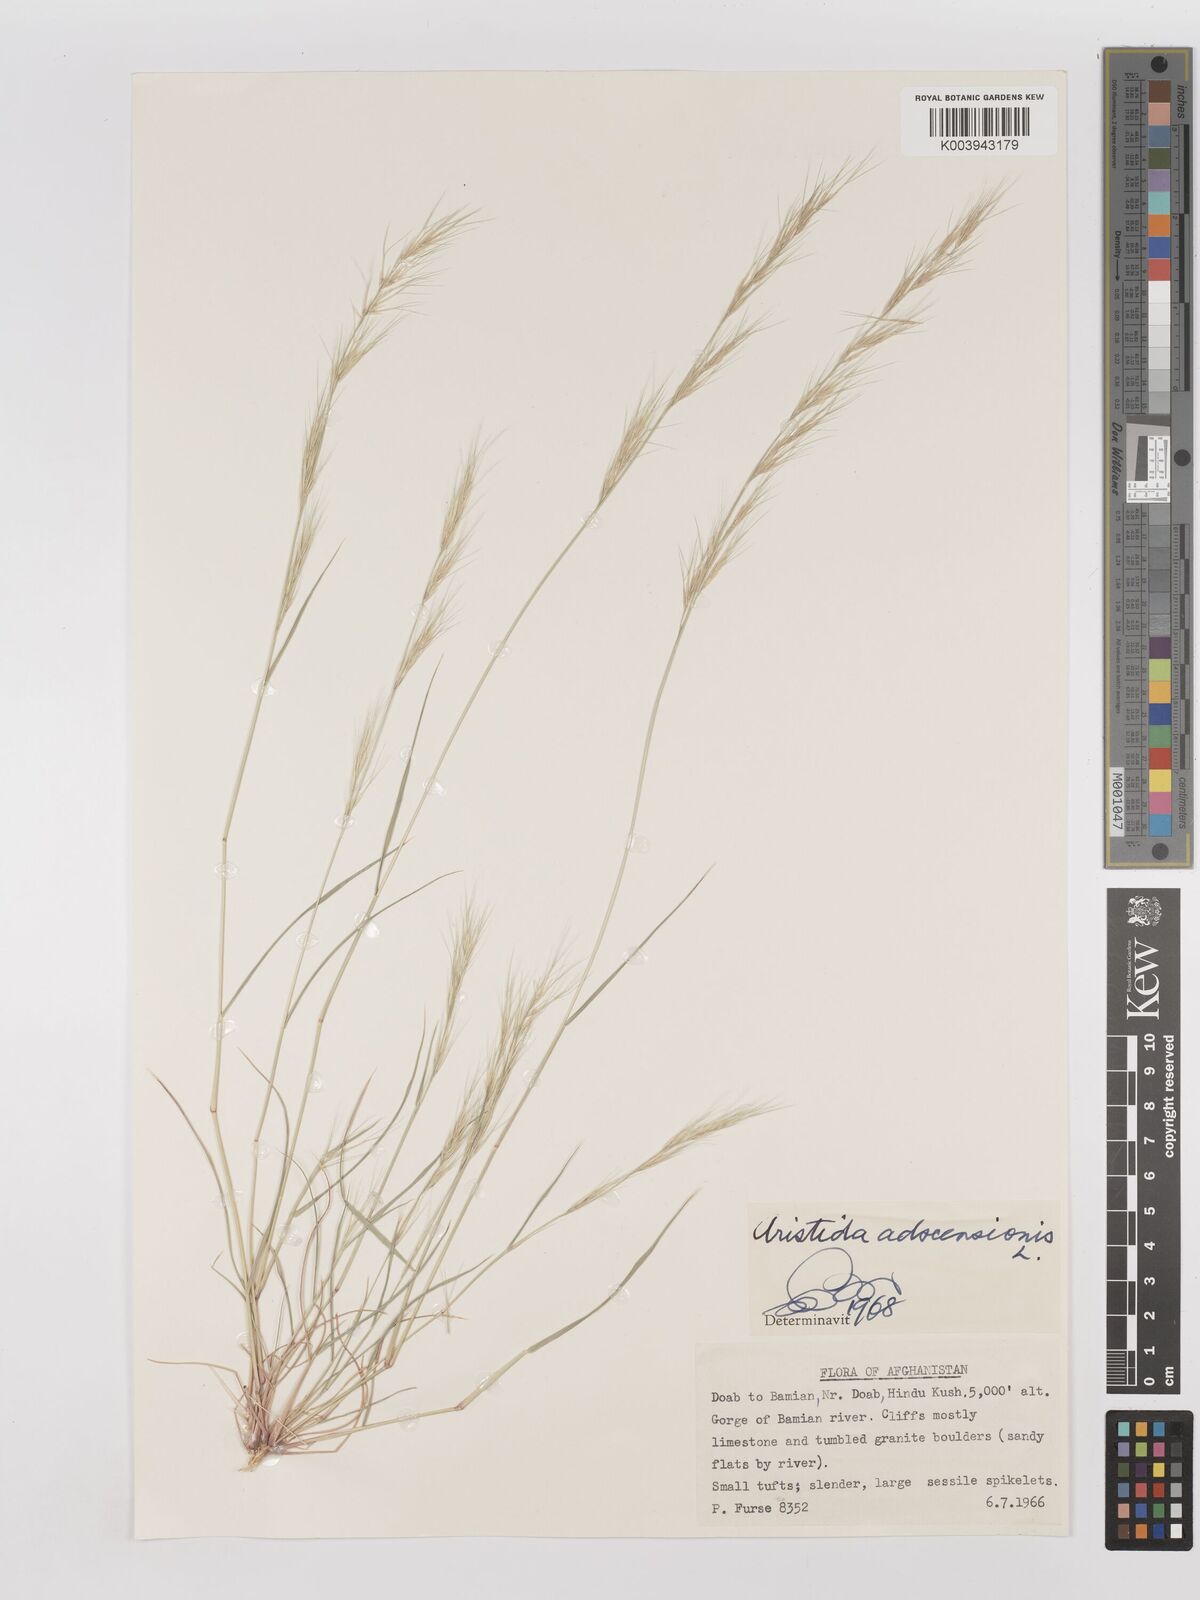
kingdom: Plantae
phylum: Tracheophyta
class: Liliopsida
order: Poales
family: Poaceae
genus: Aristida
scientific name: Aristida adscensionis
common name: Sixweeks threeawn
